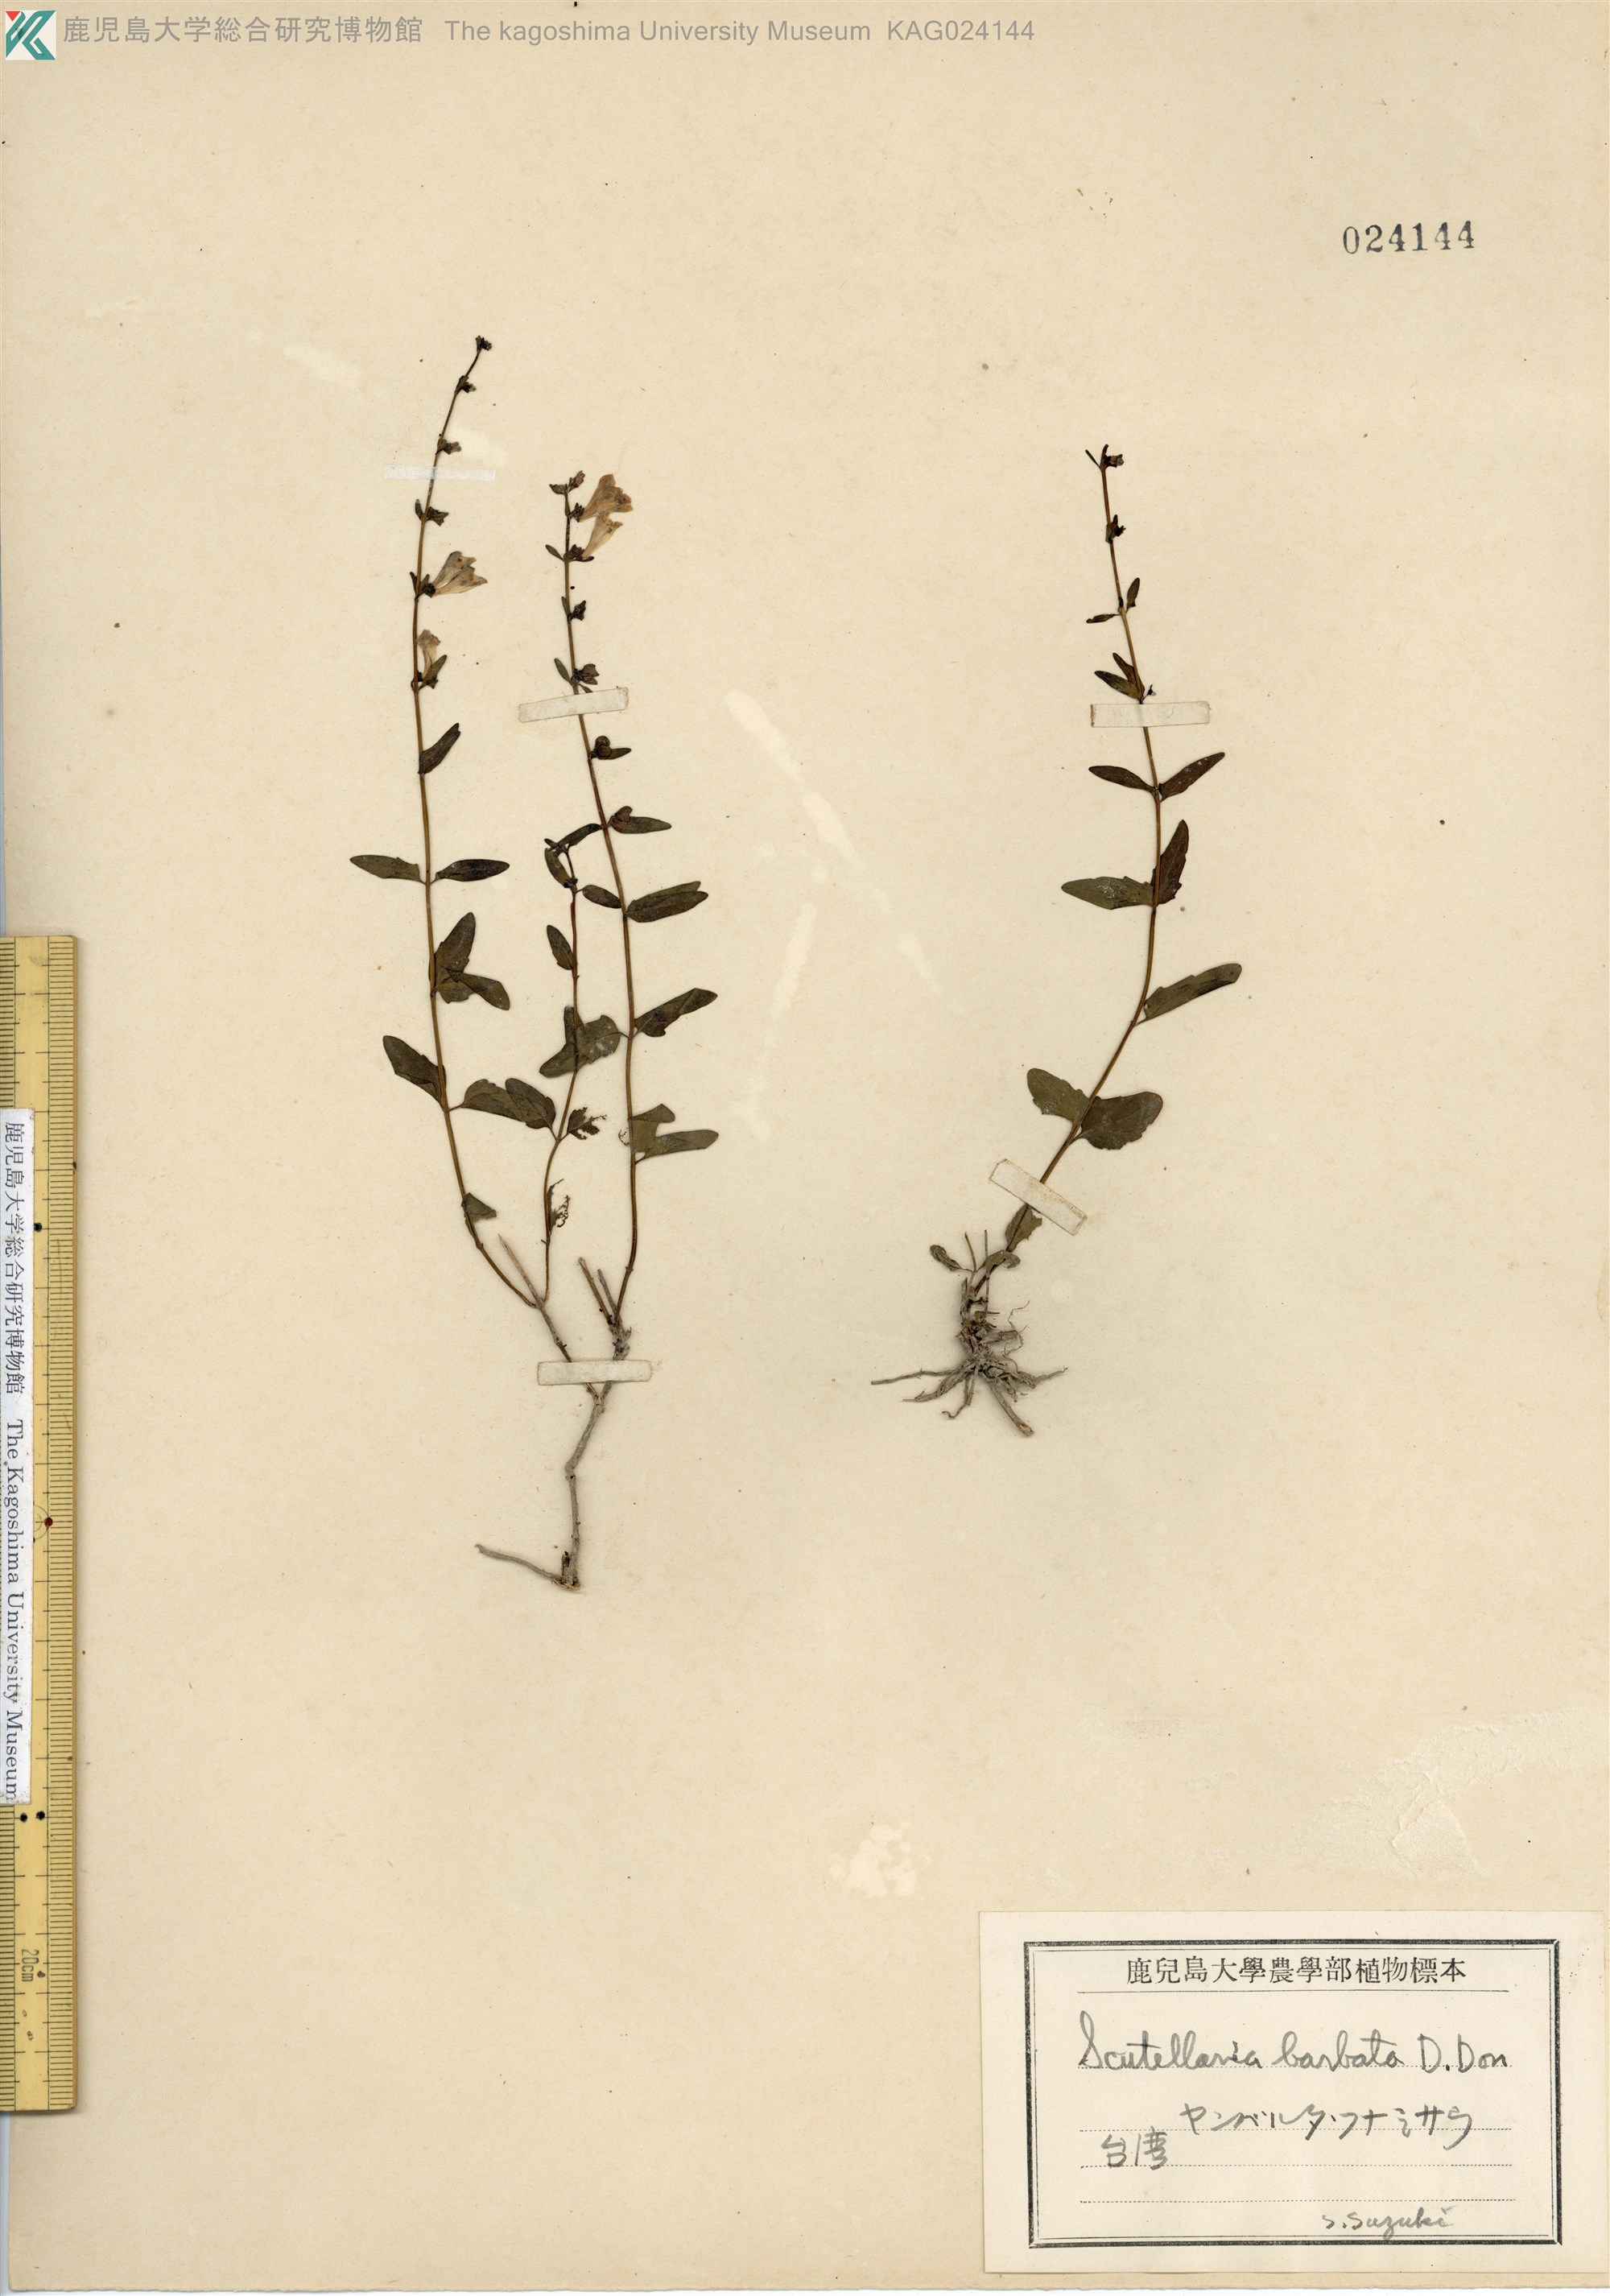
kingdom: Plantae
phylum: Tracheophyta
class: Magnoliopsida
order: Lamiales
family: Lamiaceae
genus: Scutellaria
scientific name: Scutellaria barbata
